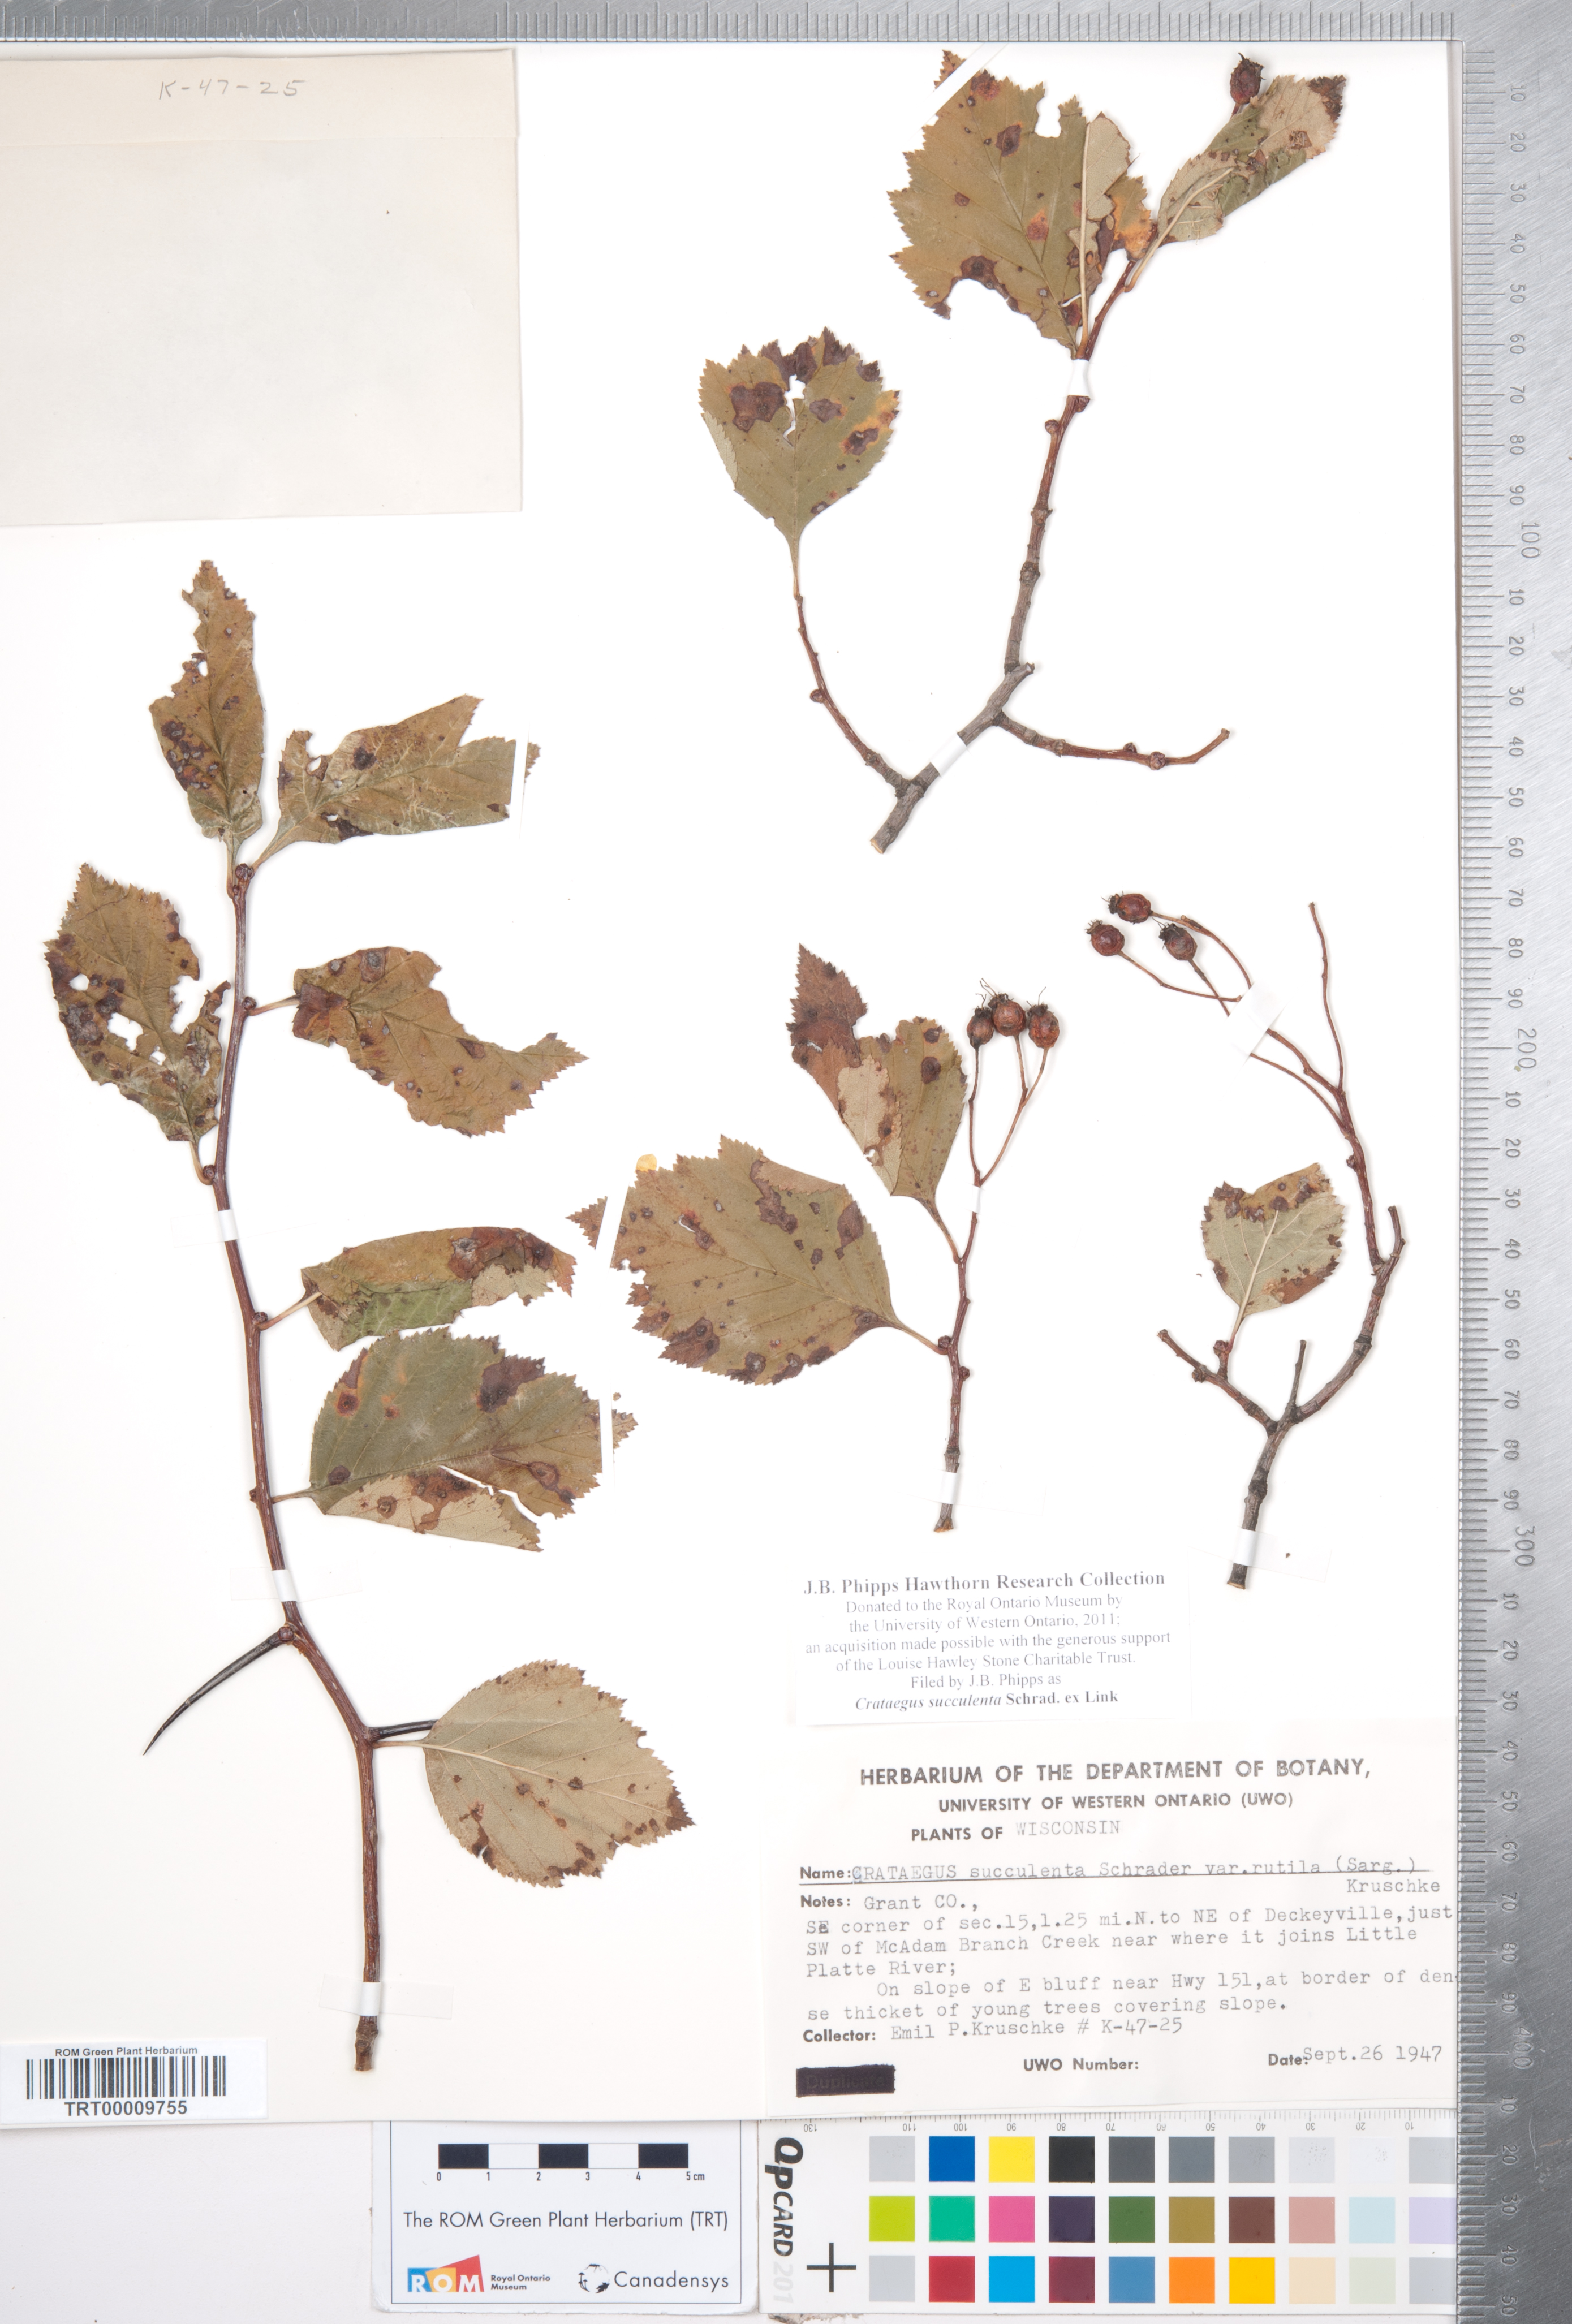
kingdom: Plantae
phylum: Tracheophyta
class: Magnoliopsida
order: Rosales
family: Rosaceae
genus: Crataegus
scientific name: Crataegus succulenta
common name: Fleshy hawthorn
